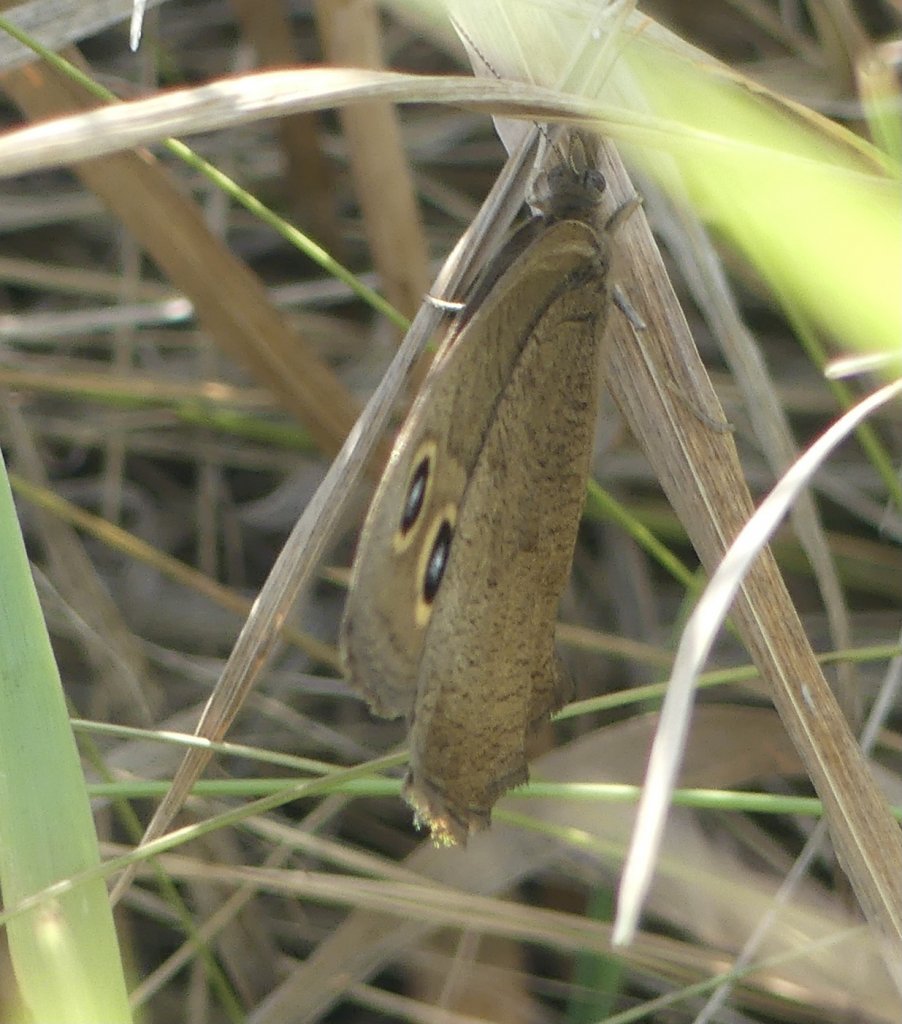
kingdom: Animalia
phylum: Arthropoda
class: Insecta
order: Lepidoptera
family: Nymphalidae
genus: Cercyonis
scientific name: Cercyonis pegala
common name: Common Wood-Nymph
